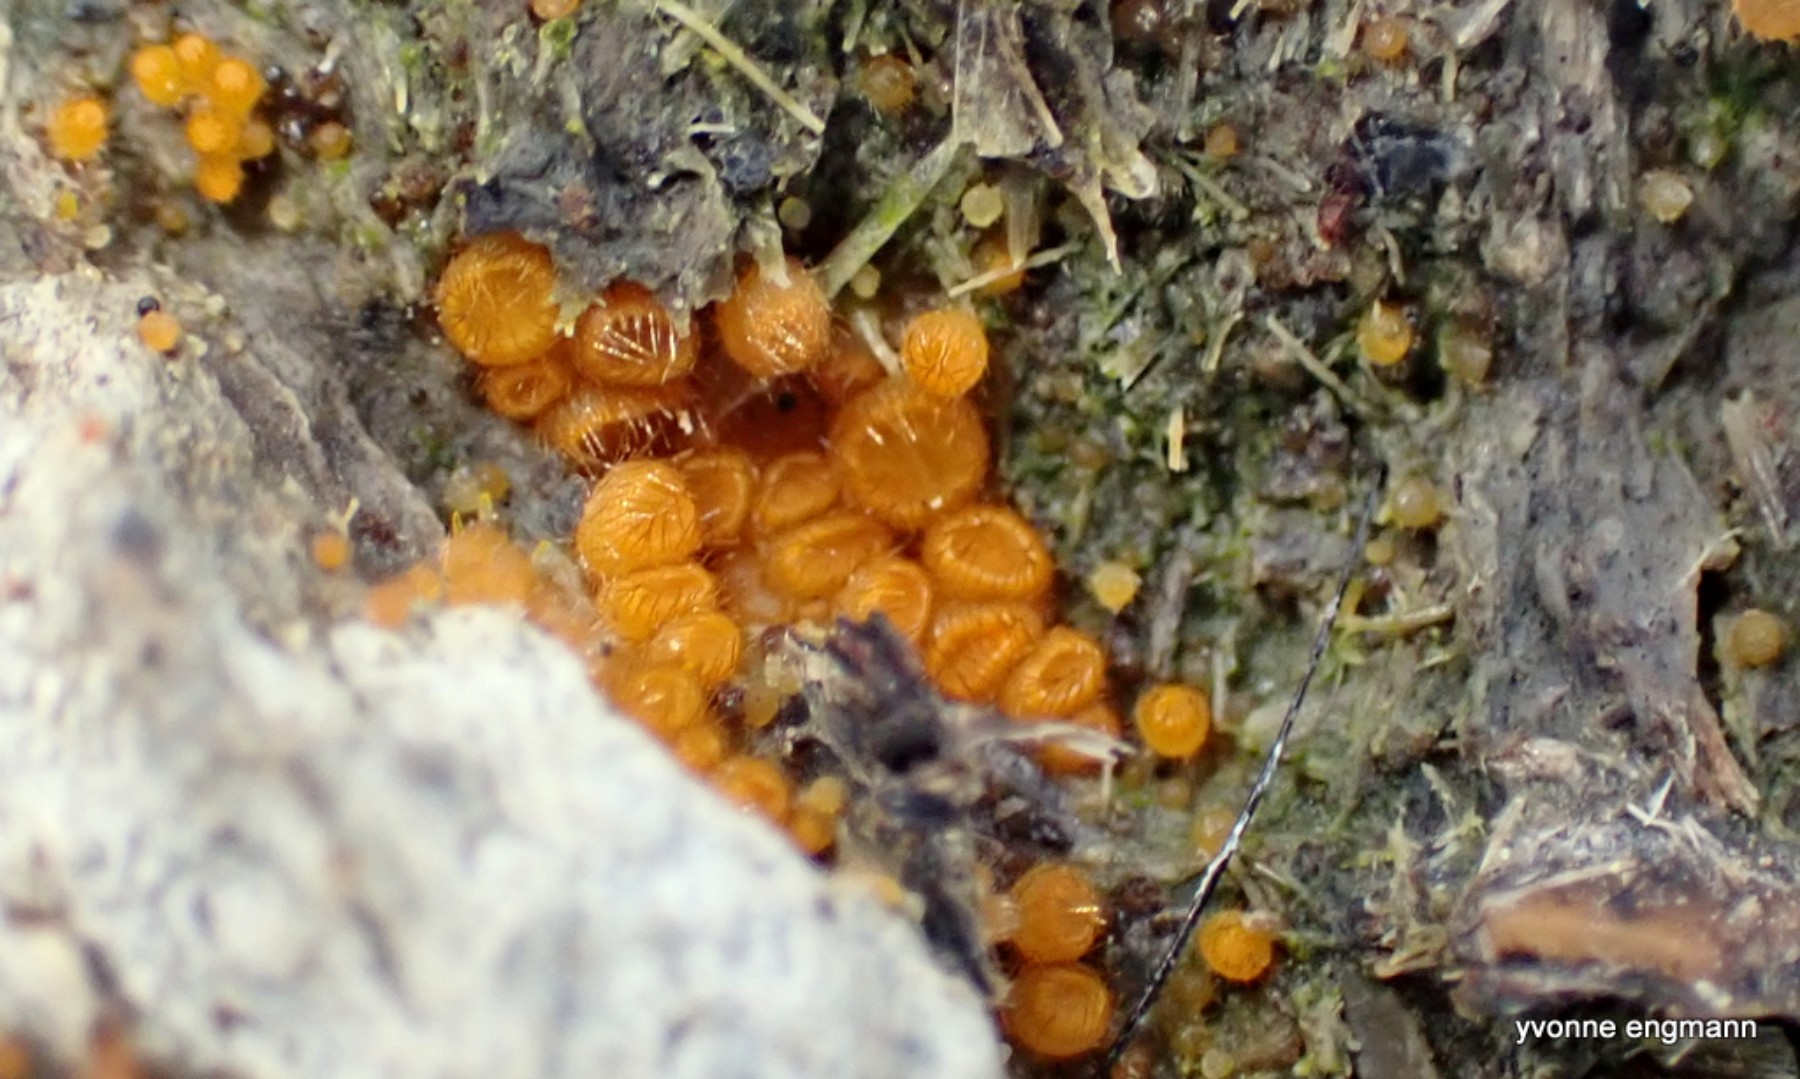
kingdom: Fungi
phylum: Ascomycota
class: Pezizomycetes
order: Pezizales
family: Pyronemataceae
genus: Cheilymenia
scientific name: Cheilymenia
